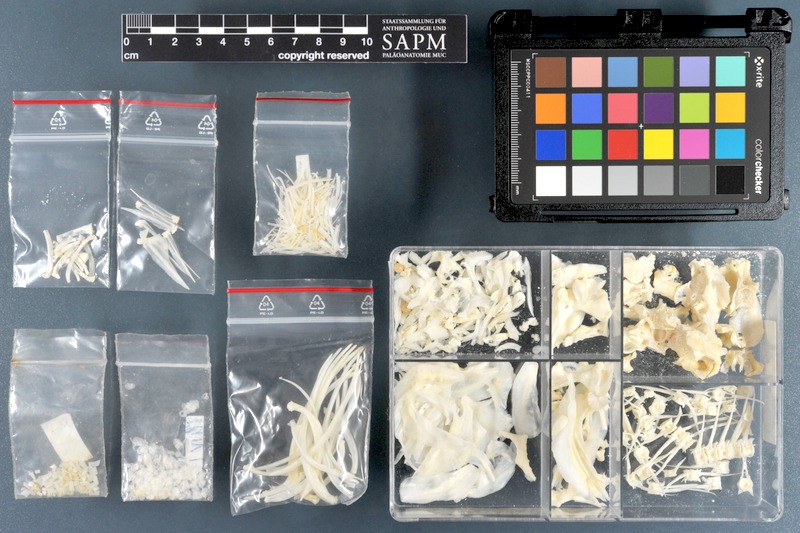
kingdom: Animalia
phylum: Chordata
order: Characiformes
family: Serrasalmidae
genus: Pygocentrus
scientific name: Pygocentrus nattereri
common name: Piranha
